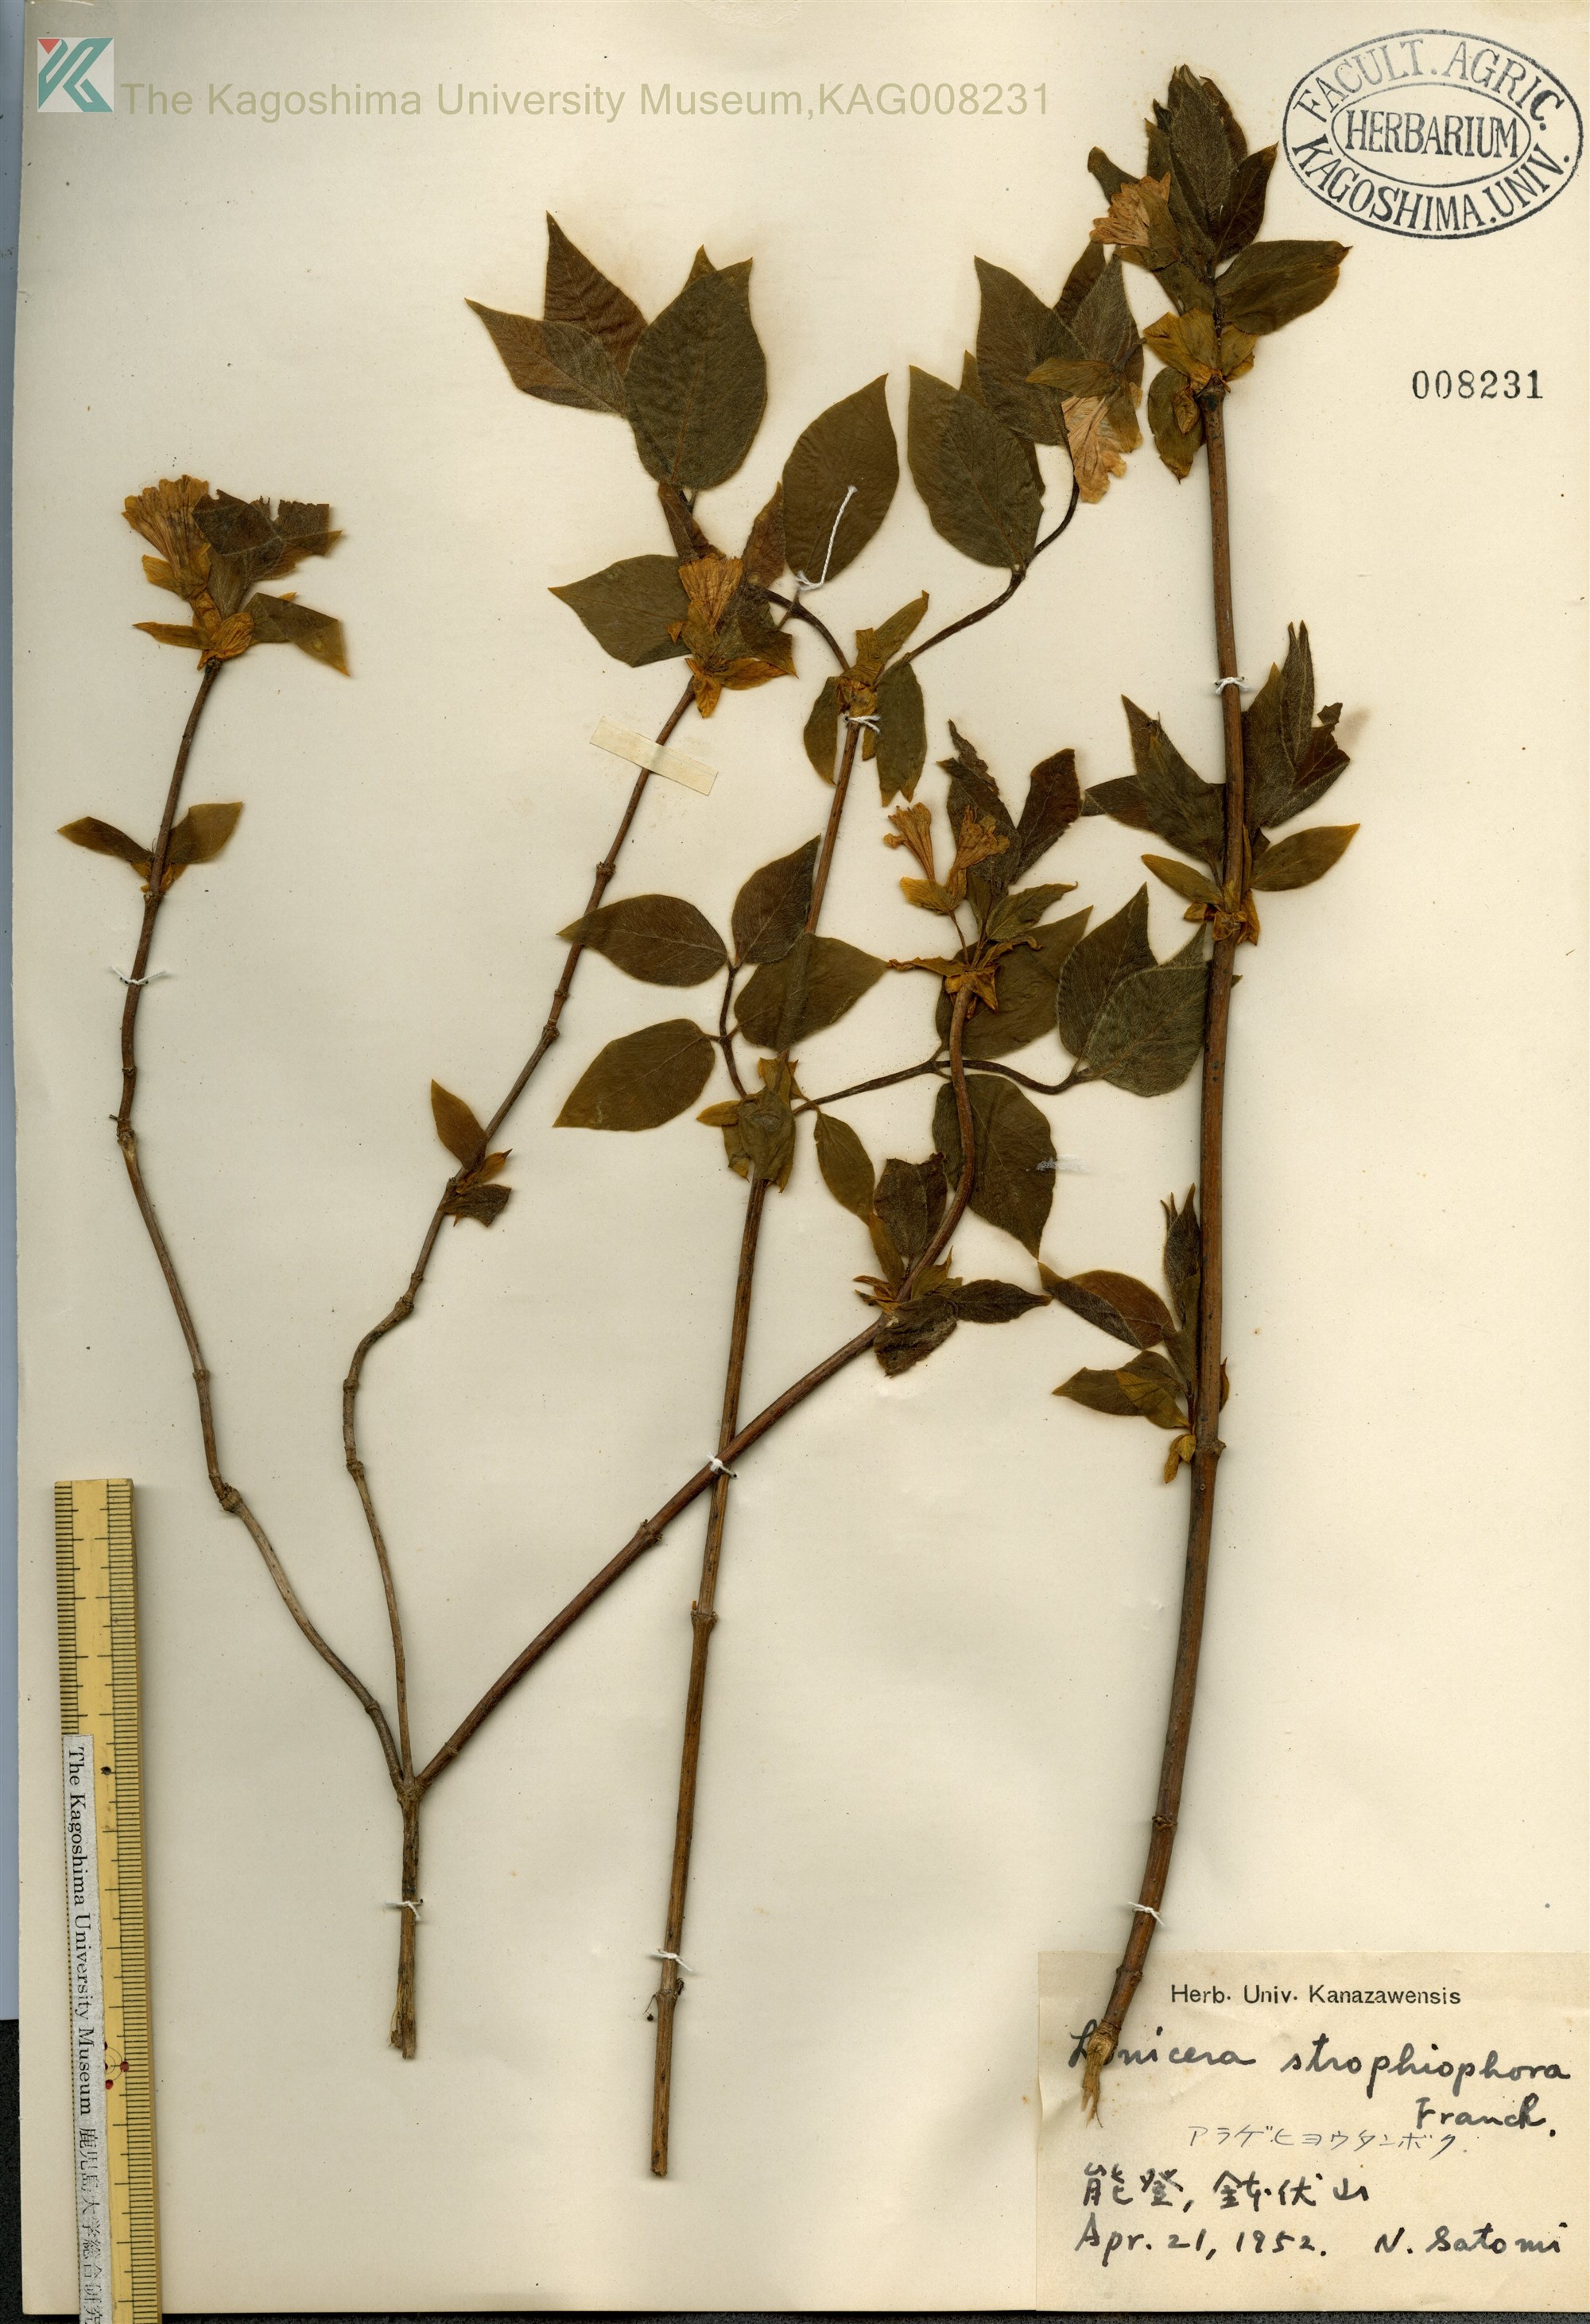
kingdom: Plantae
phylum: Tracheophyta
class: Magnoliopsida
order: Dipsacales
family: Caprifoliaceae
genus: Lonicera
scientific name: Lonicera strophiophora
